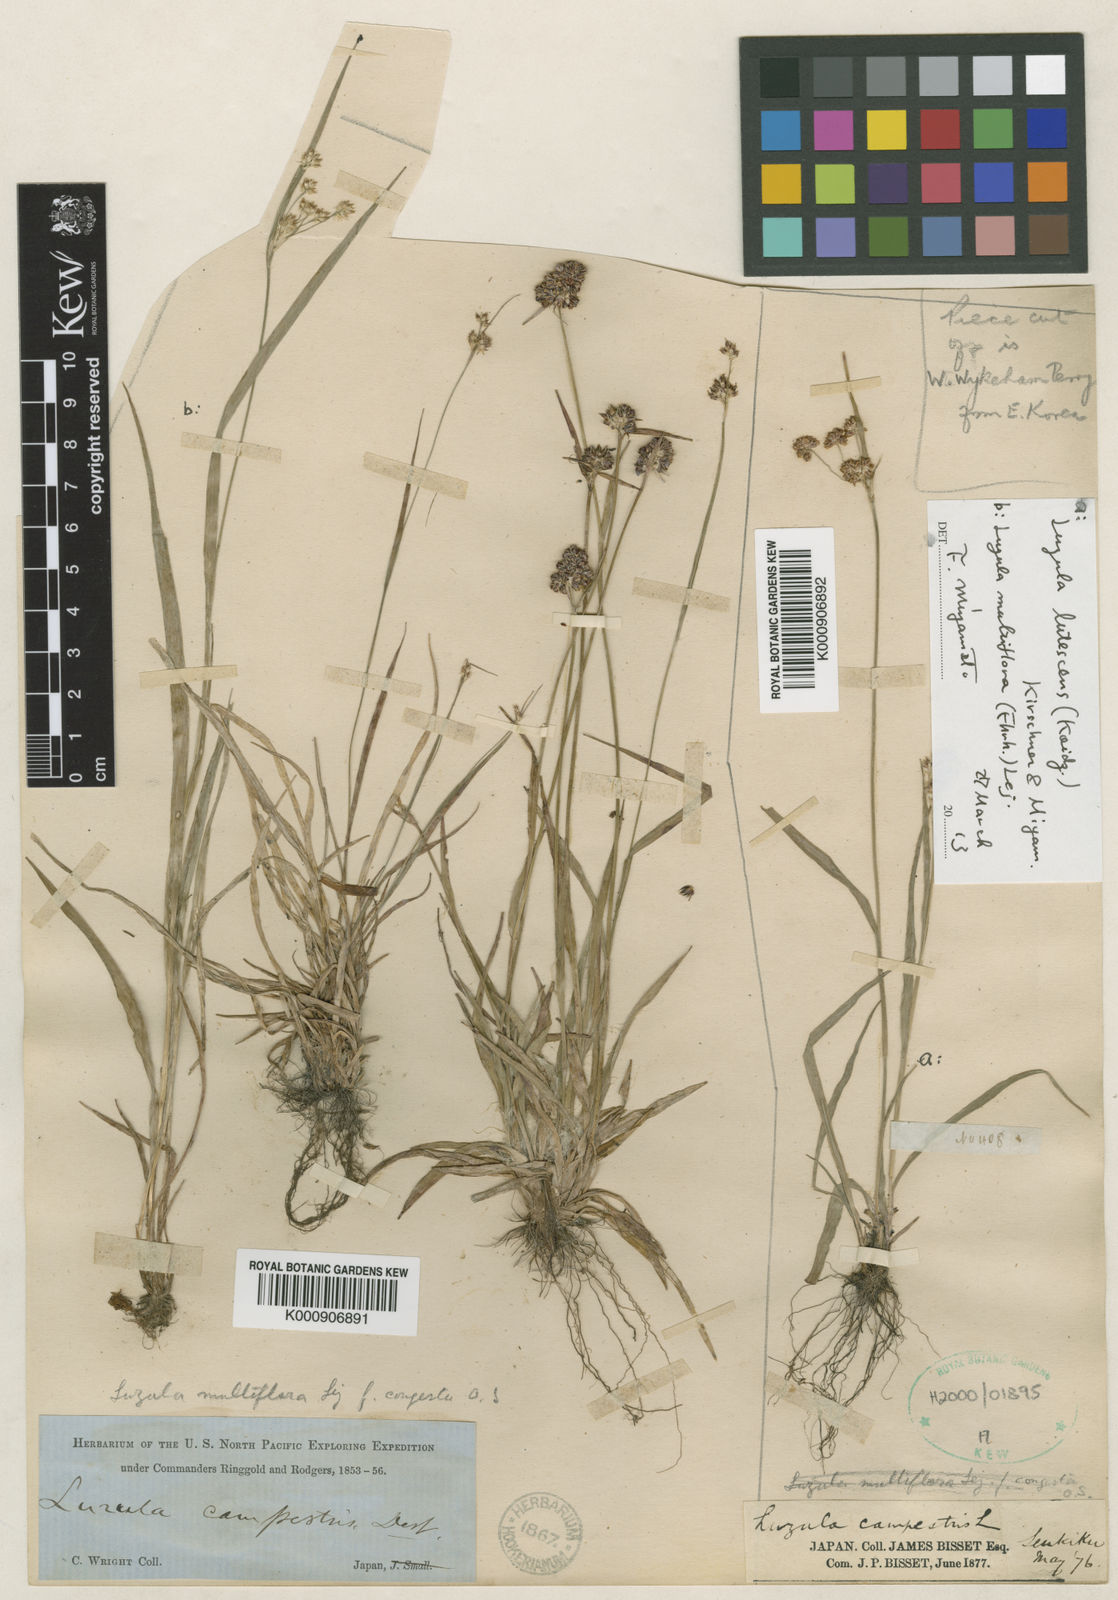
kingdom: Plantae
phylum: Tracheophyta
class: Liliopsida
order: Poales
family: Juncaceae
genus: Luzula
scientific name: Luzula capitata
